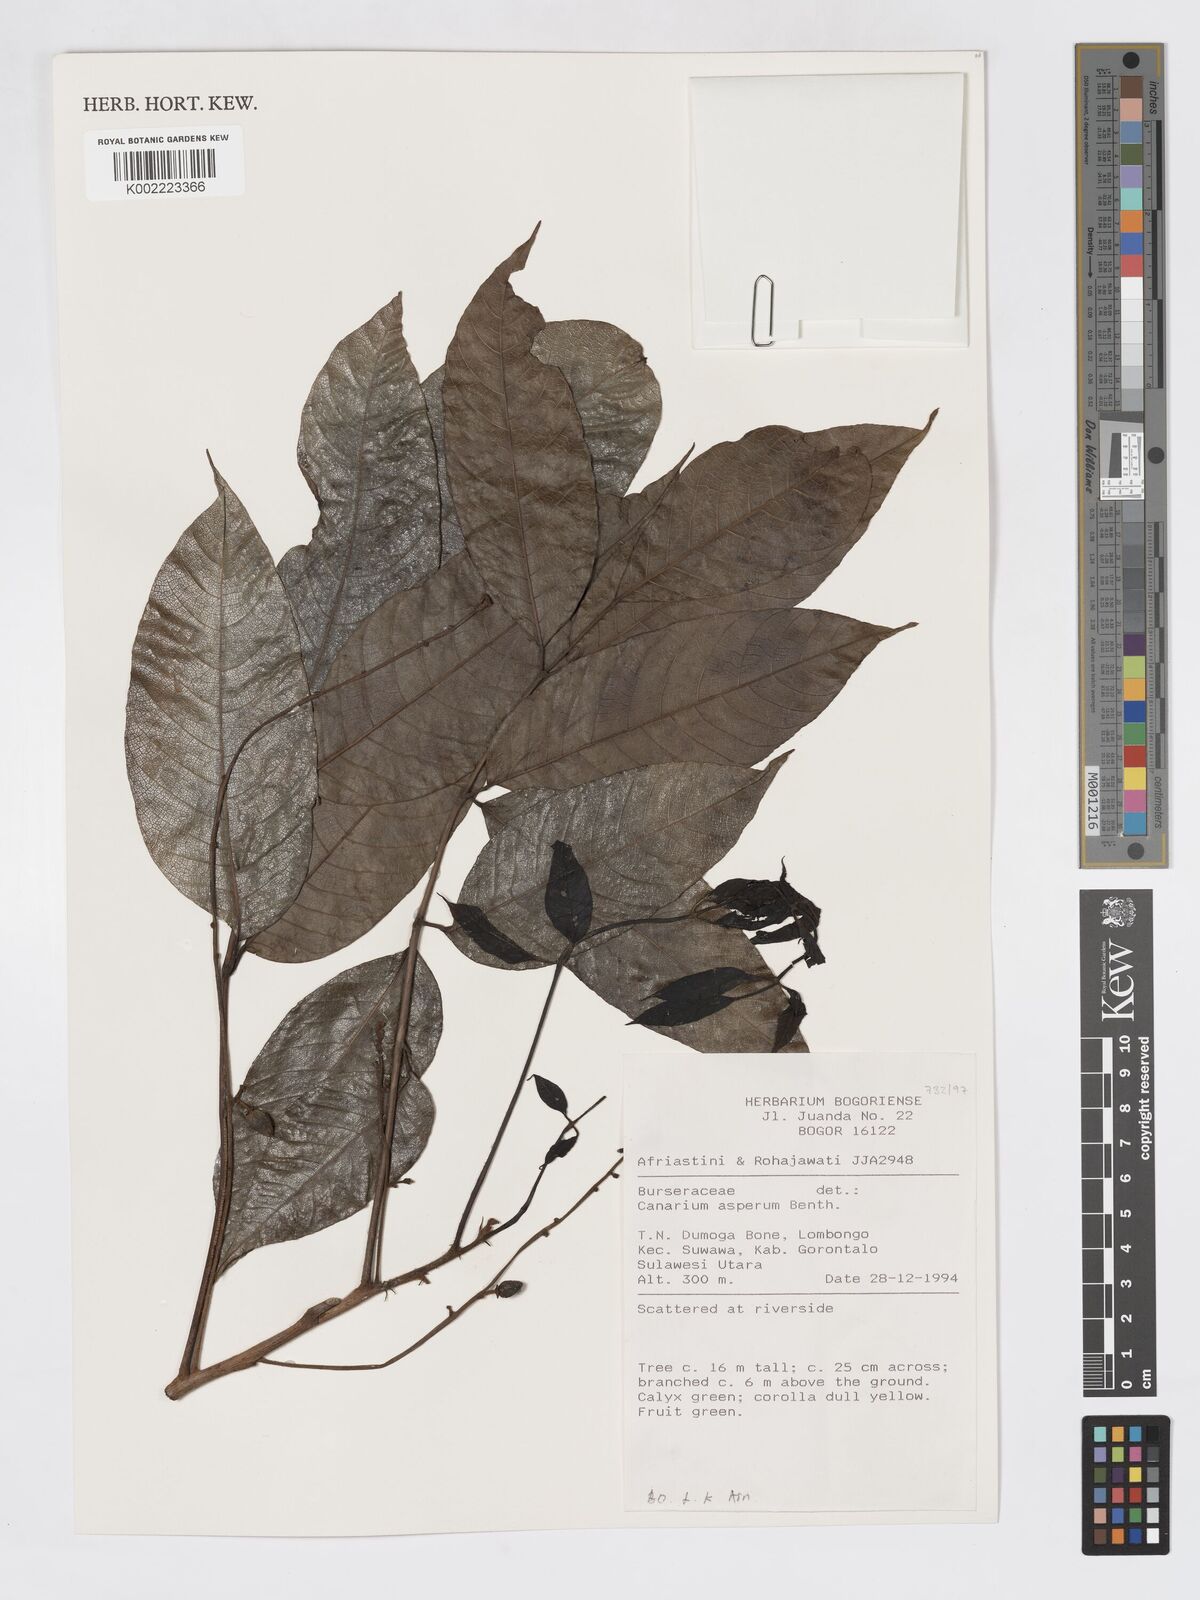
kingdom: Plantae
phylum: Tracheophyta
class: Magnoliopsida
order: Sapindales
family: Burseraceae
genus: Canarium
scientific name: Canarium asperum
